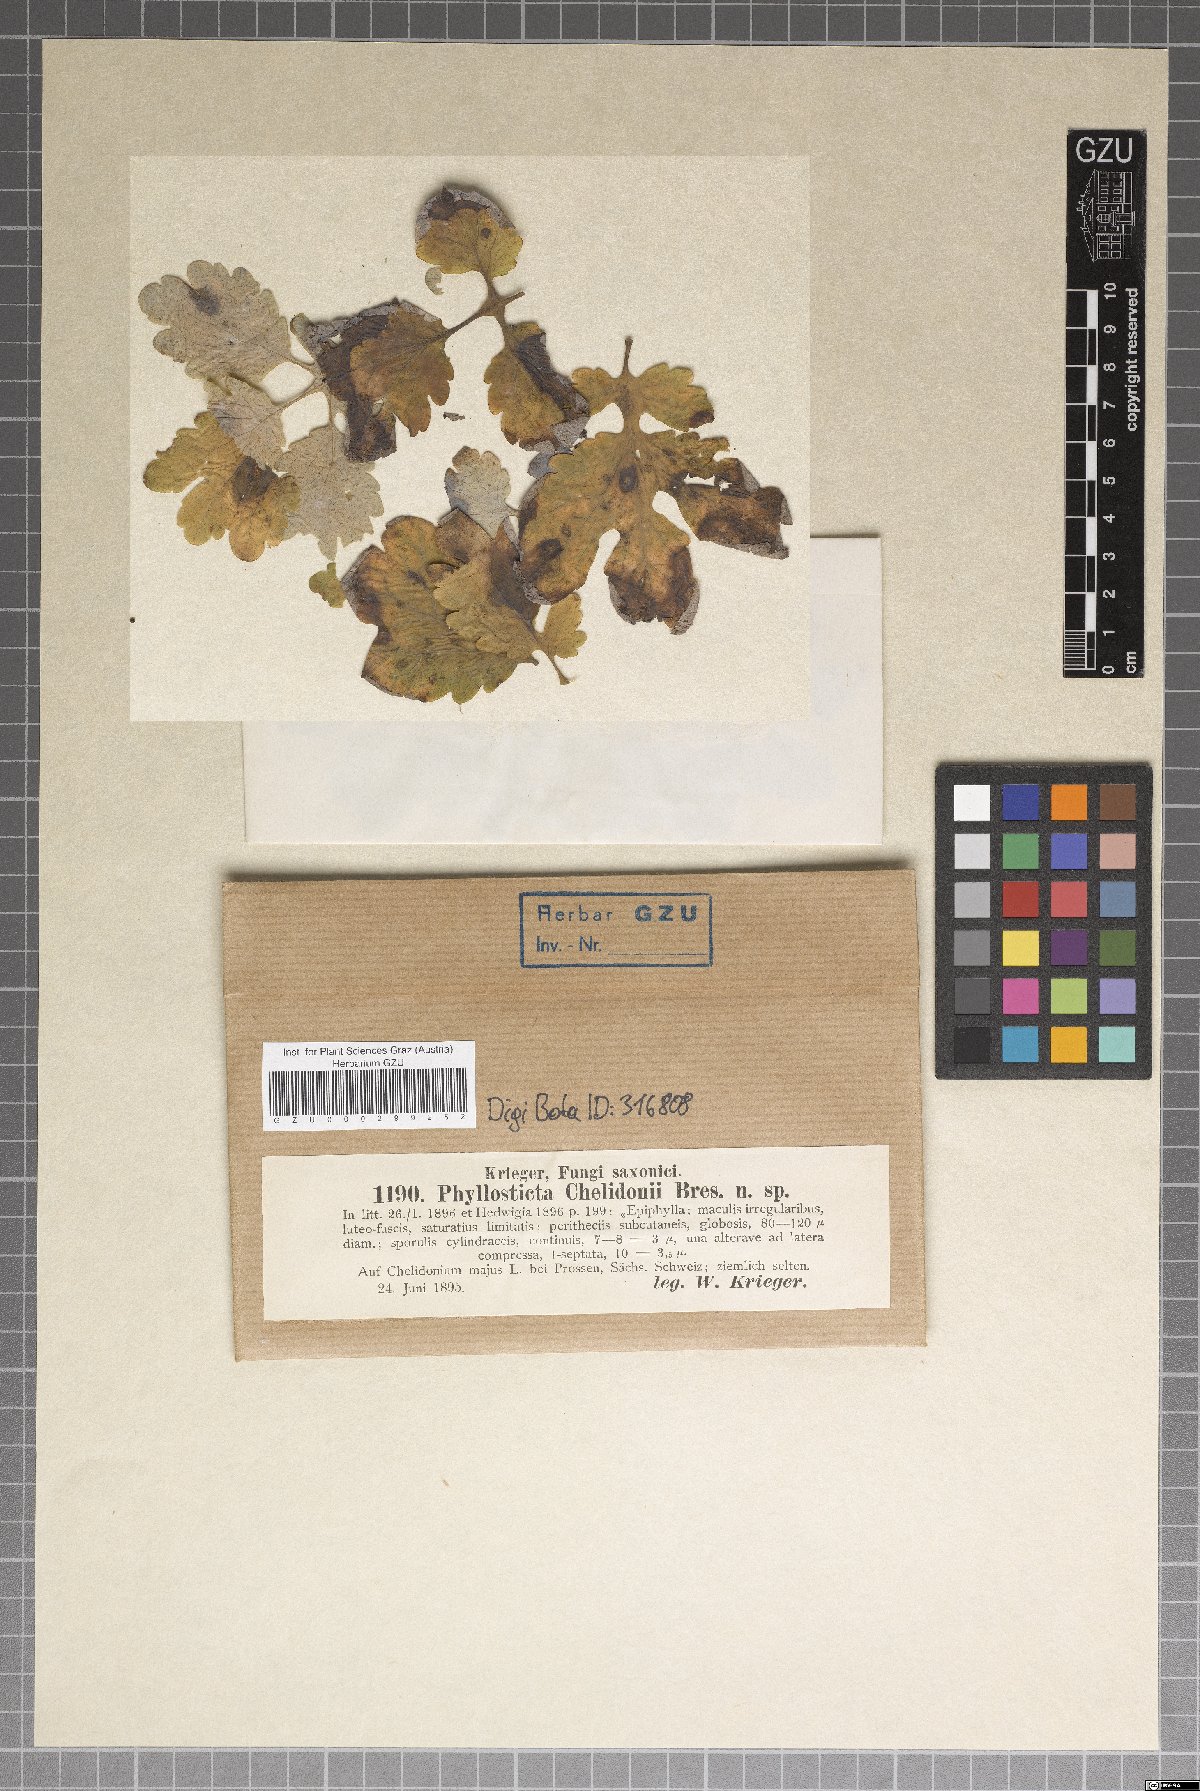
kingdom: Fungi
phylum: Ascomycota
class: Dothideomycetes
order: Botryosphaeriales
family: Botryosphaeriaceae
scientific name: Botryosphaeriaceae
